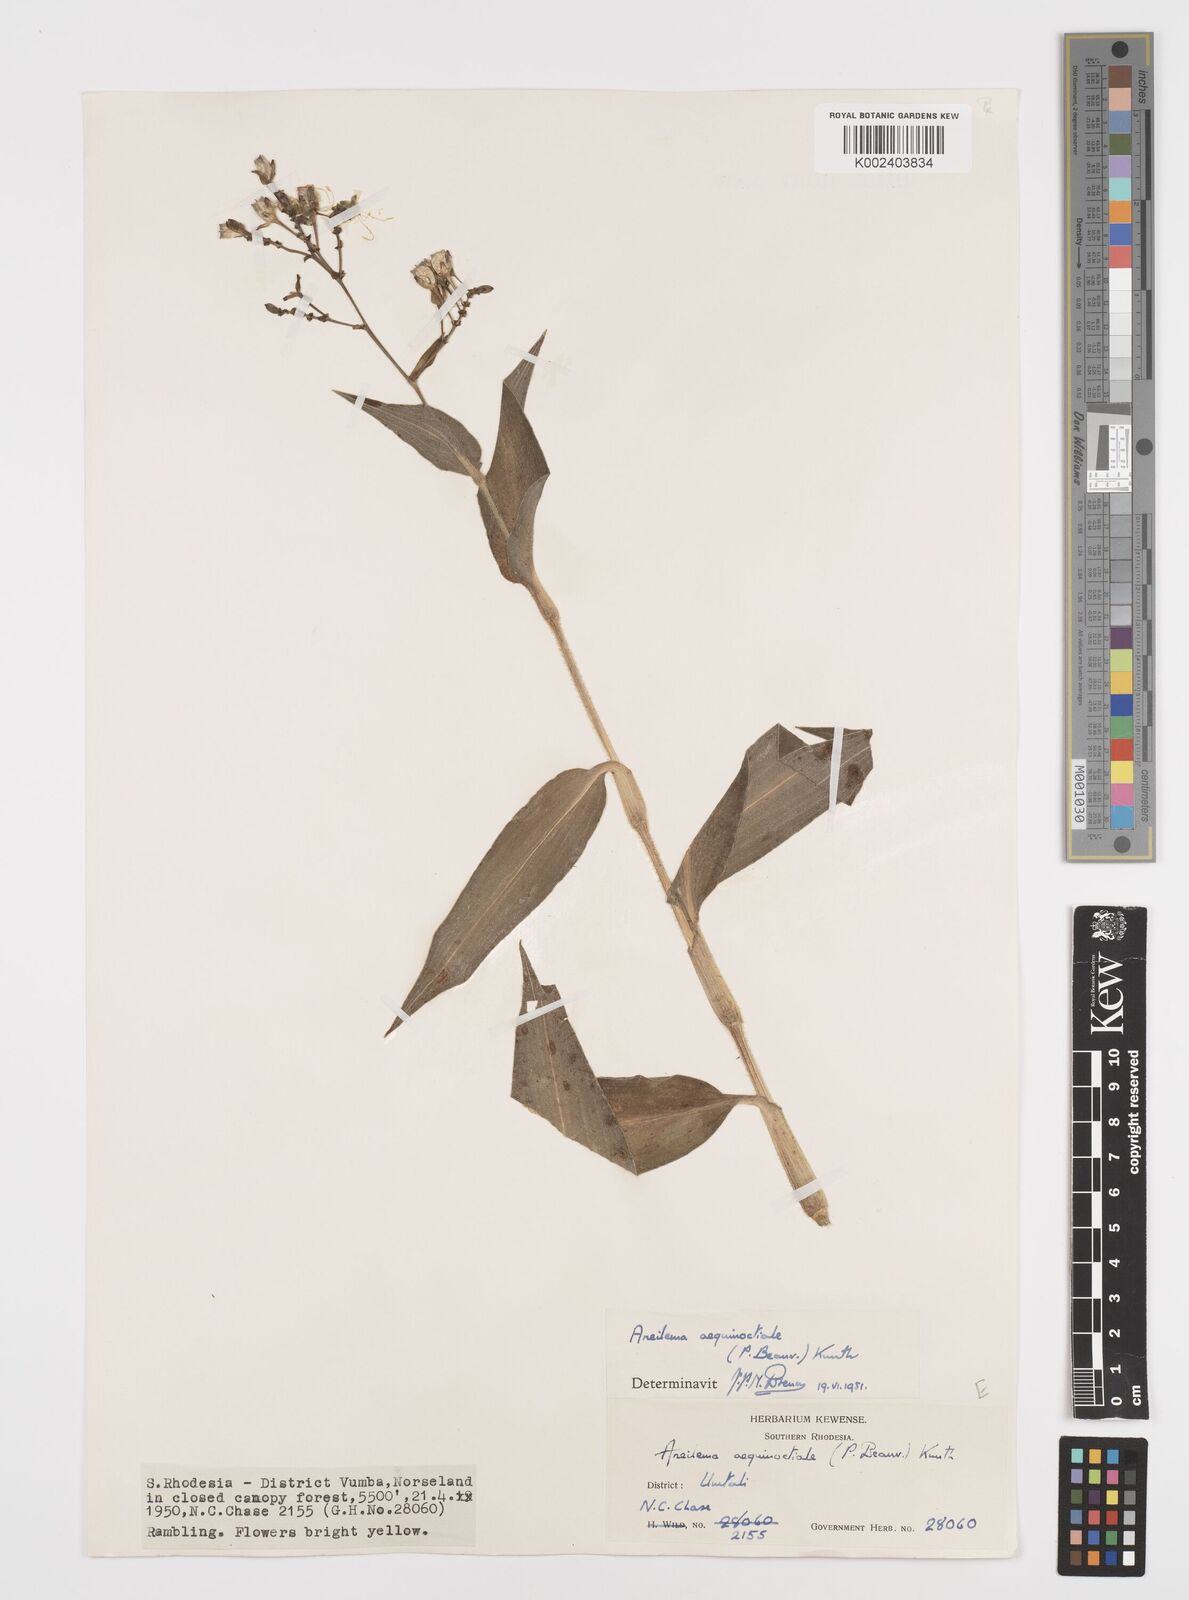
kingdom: Plantae
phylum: Tracheophyta
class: Liliopsida
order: Commelinales
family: Commelinaceae
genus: Aneilema
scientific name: Aneilema aequinoctiale
